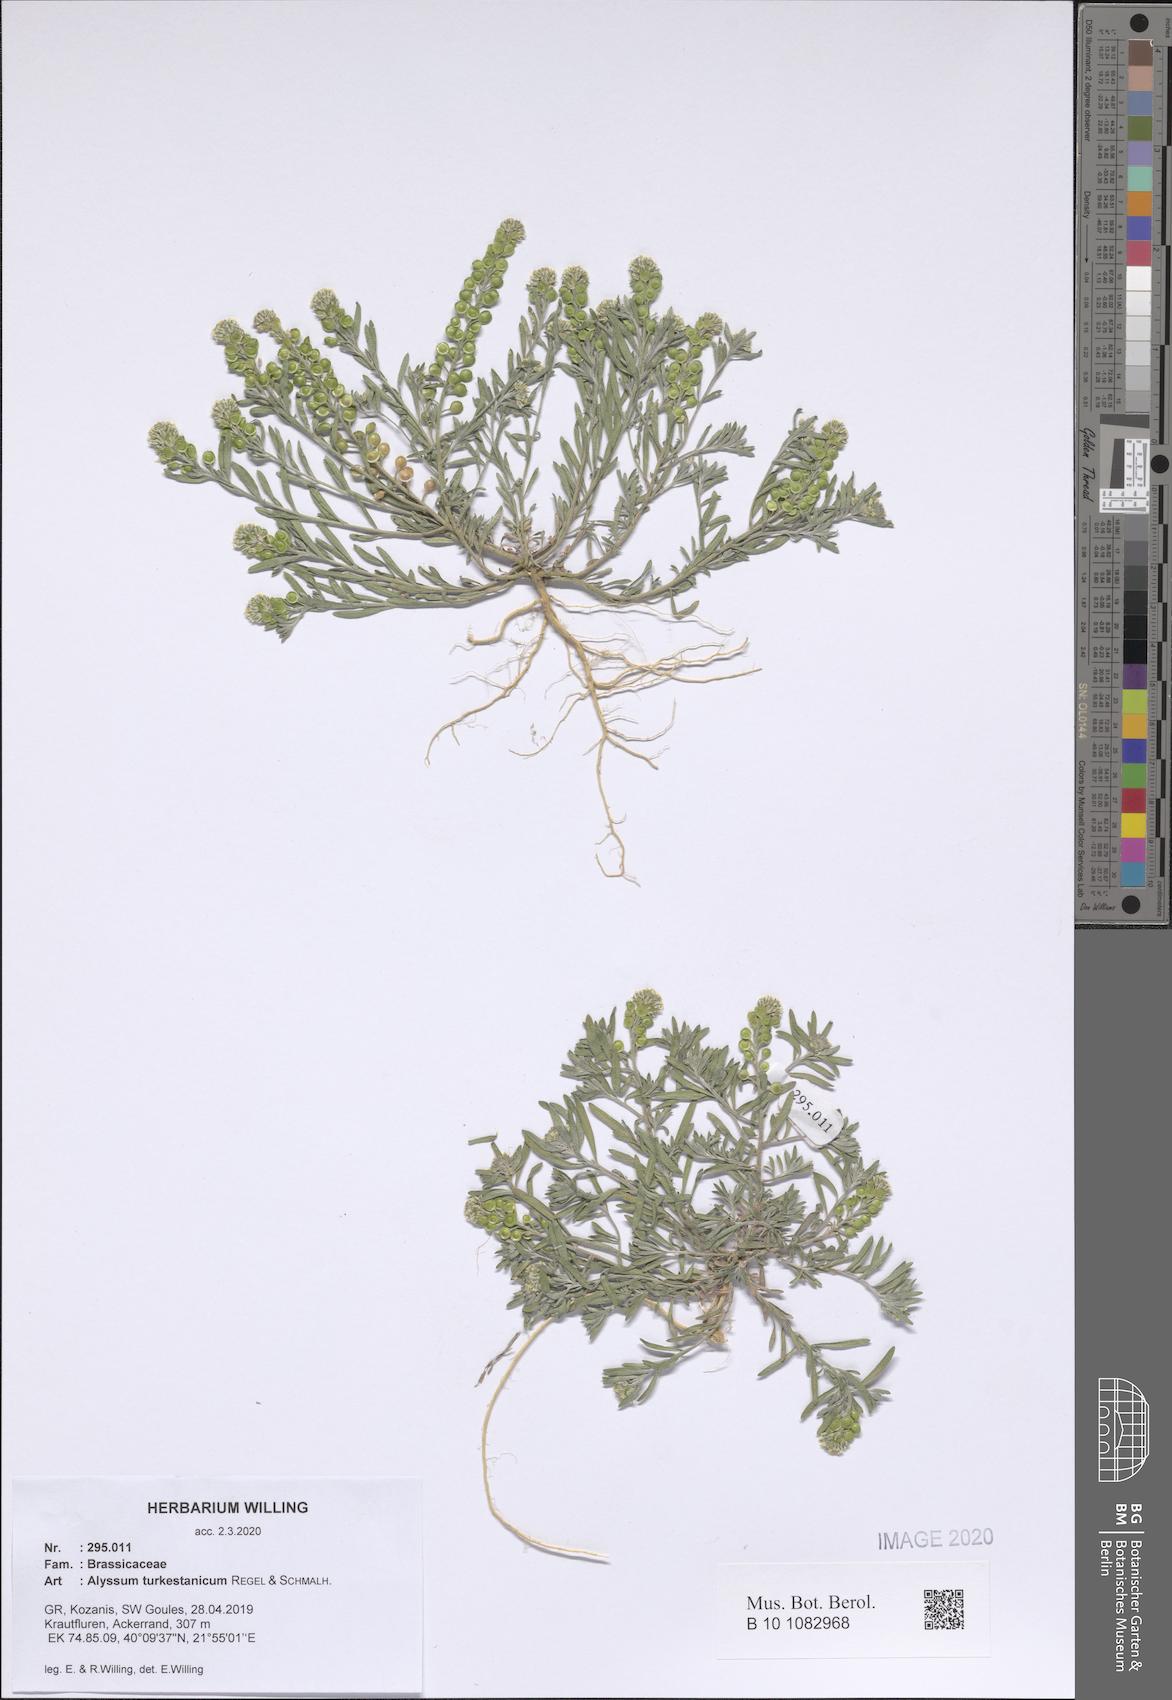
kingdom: Plantae
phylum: Tracheophyta
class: Magnoliopsida
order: Brassicales
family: Brassicaceae
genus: Alyssum
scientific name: Alyssum turkestanicum
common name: Desert alyssum
